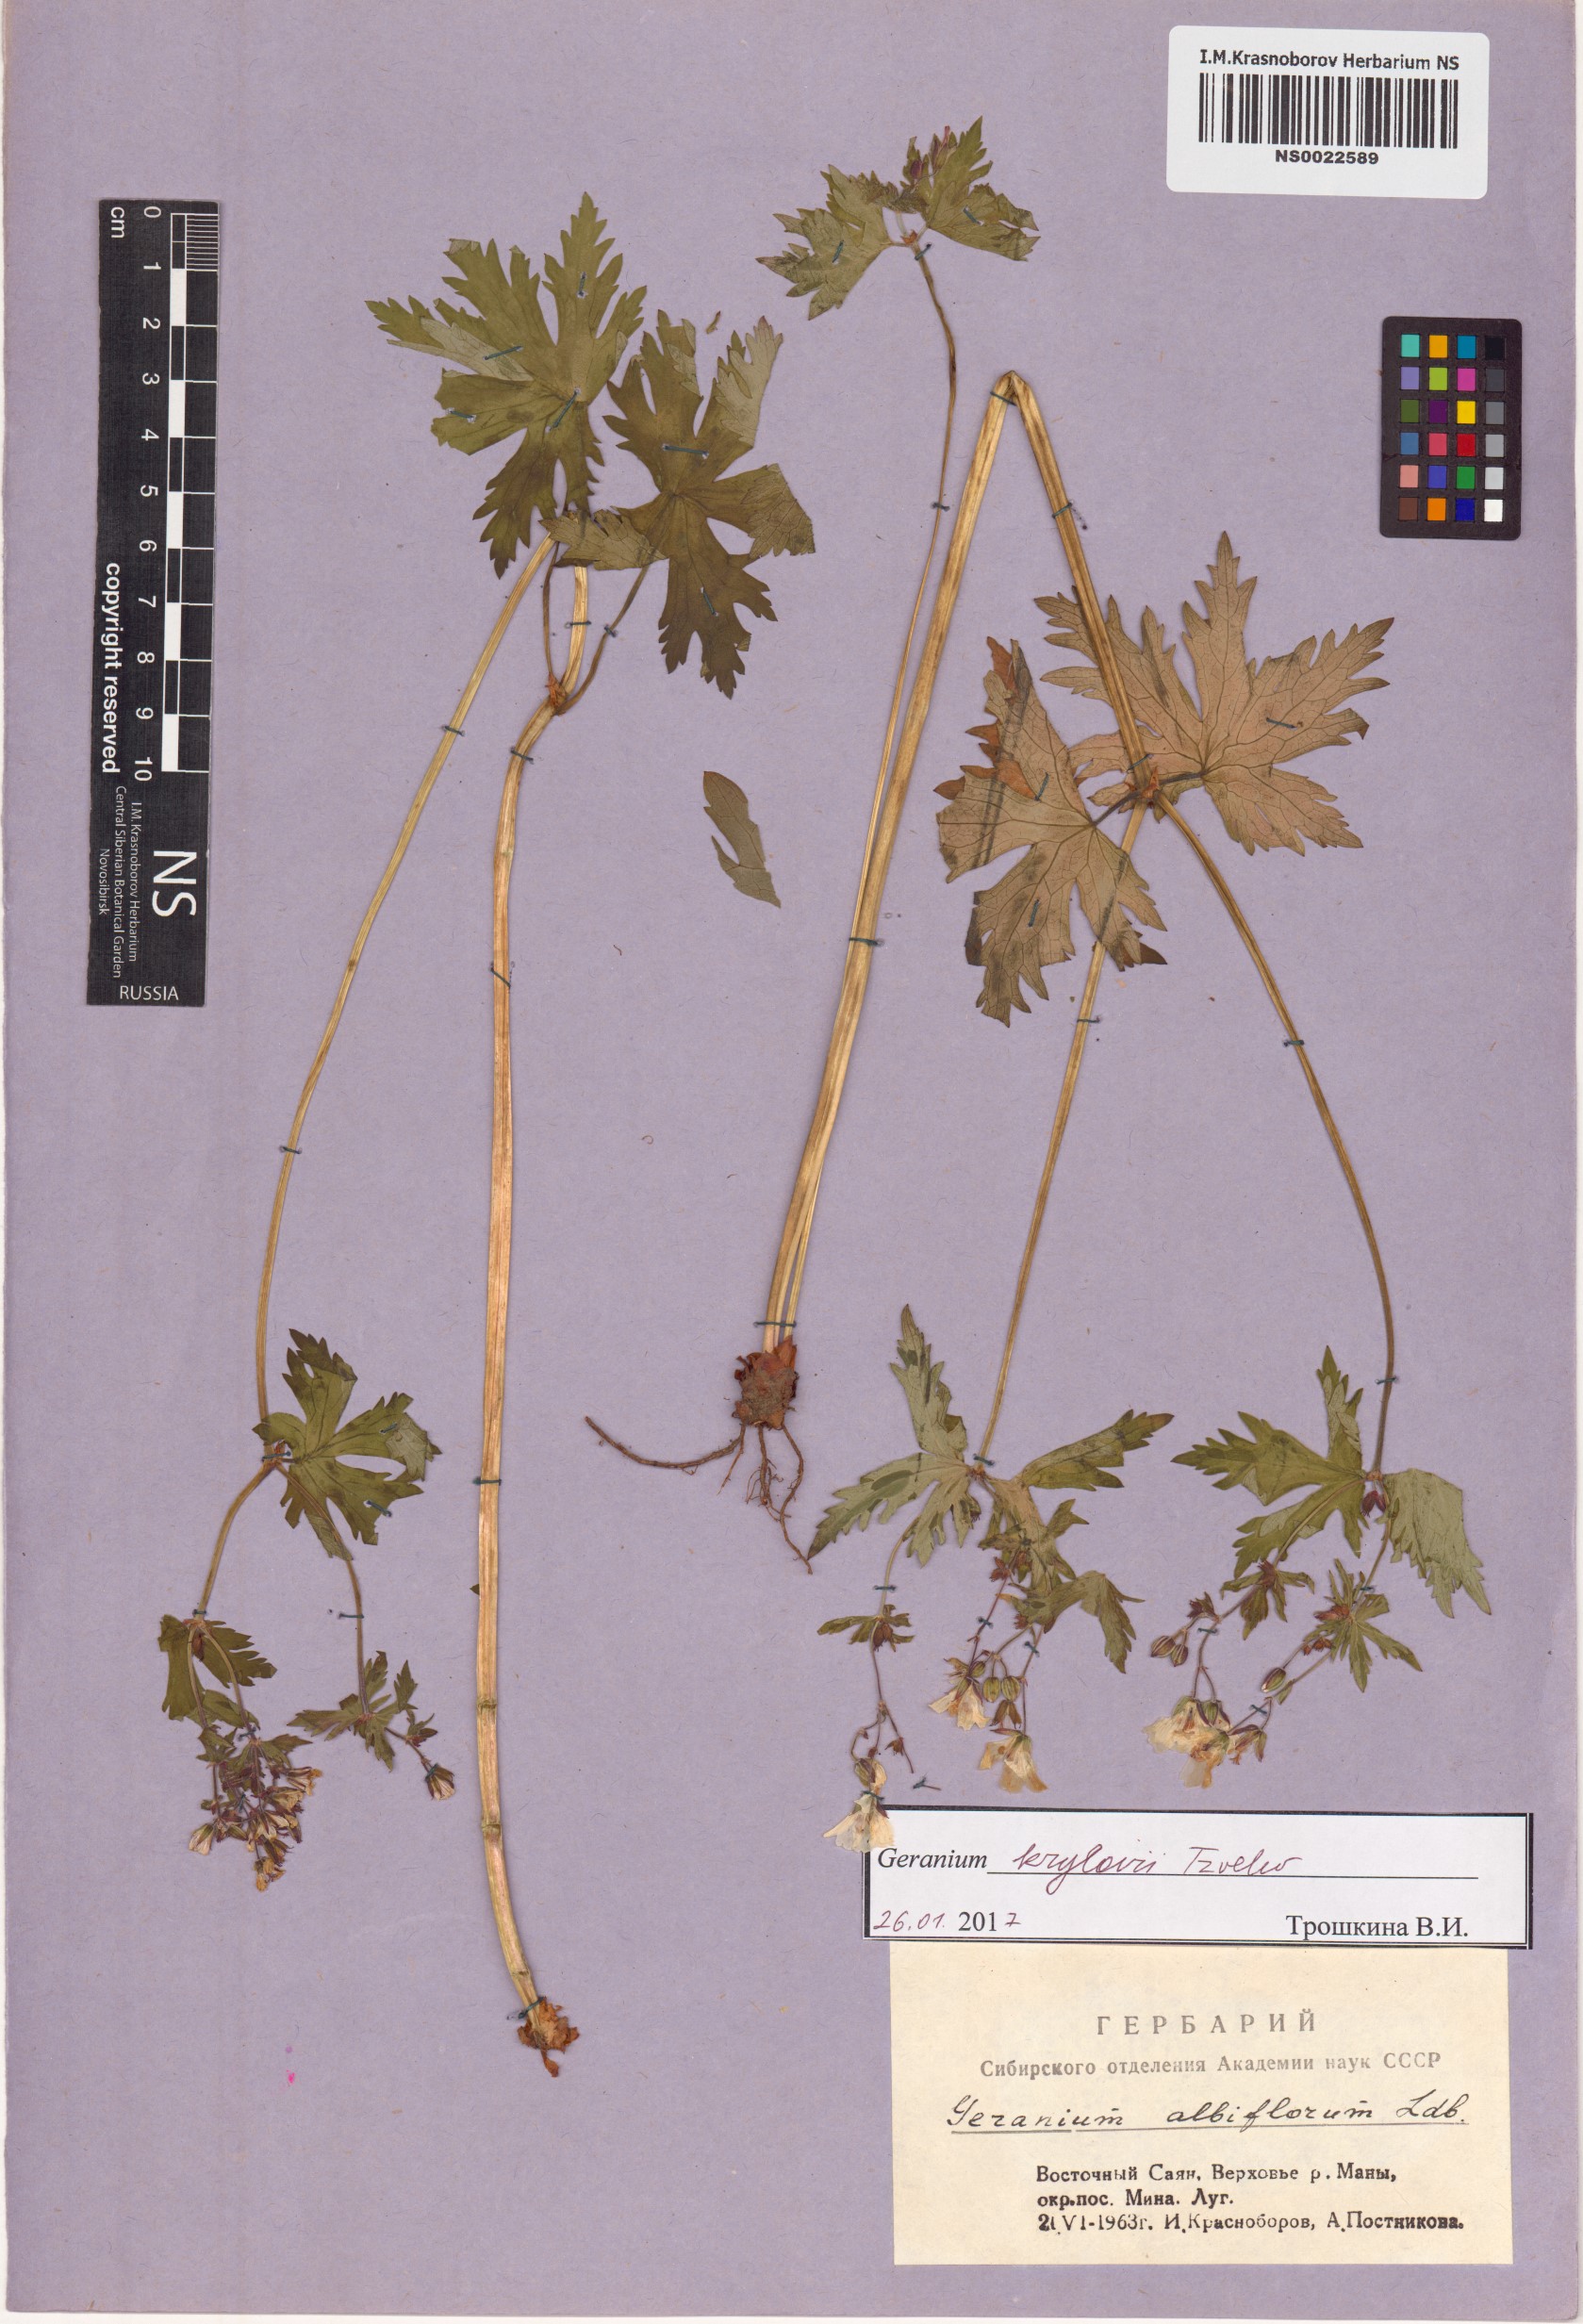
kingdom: Plantae
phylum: Tracheophyta
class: Magnoliopsida
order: Geraniales
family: Geraniaceae
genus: Geranium
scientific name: Geranium sylvaticum
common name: Wood crane's-bill
